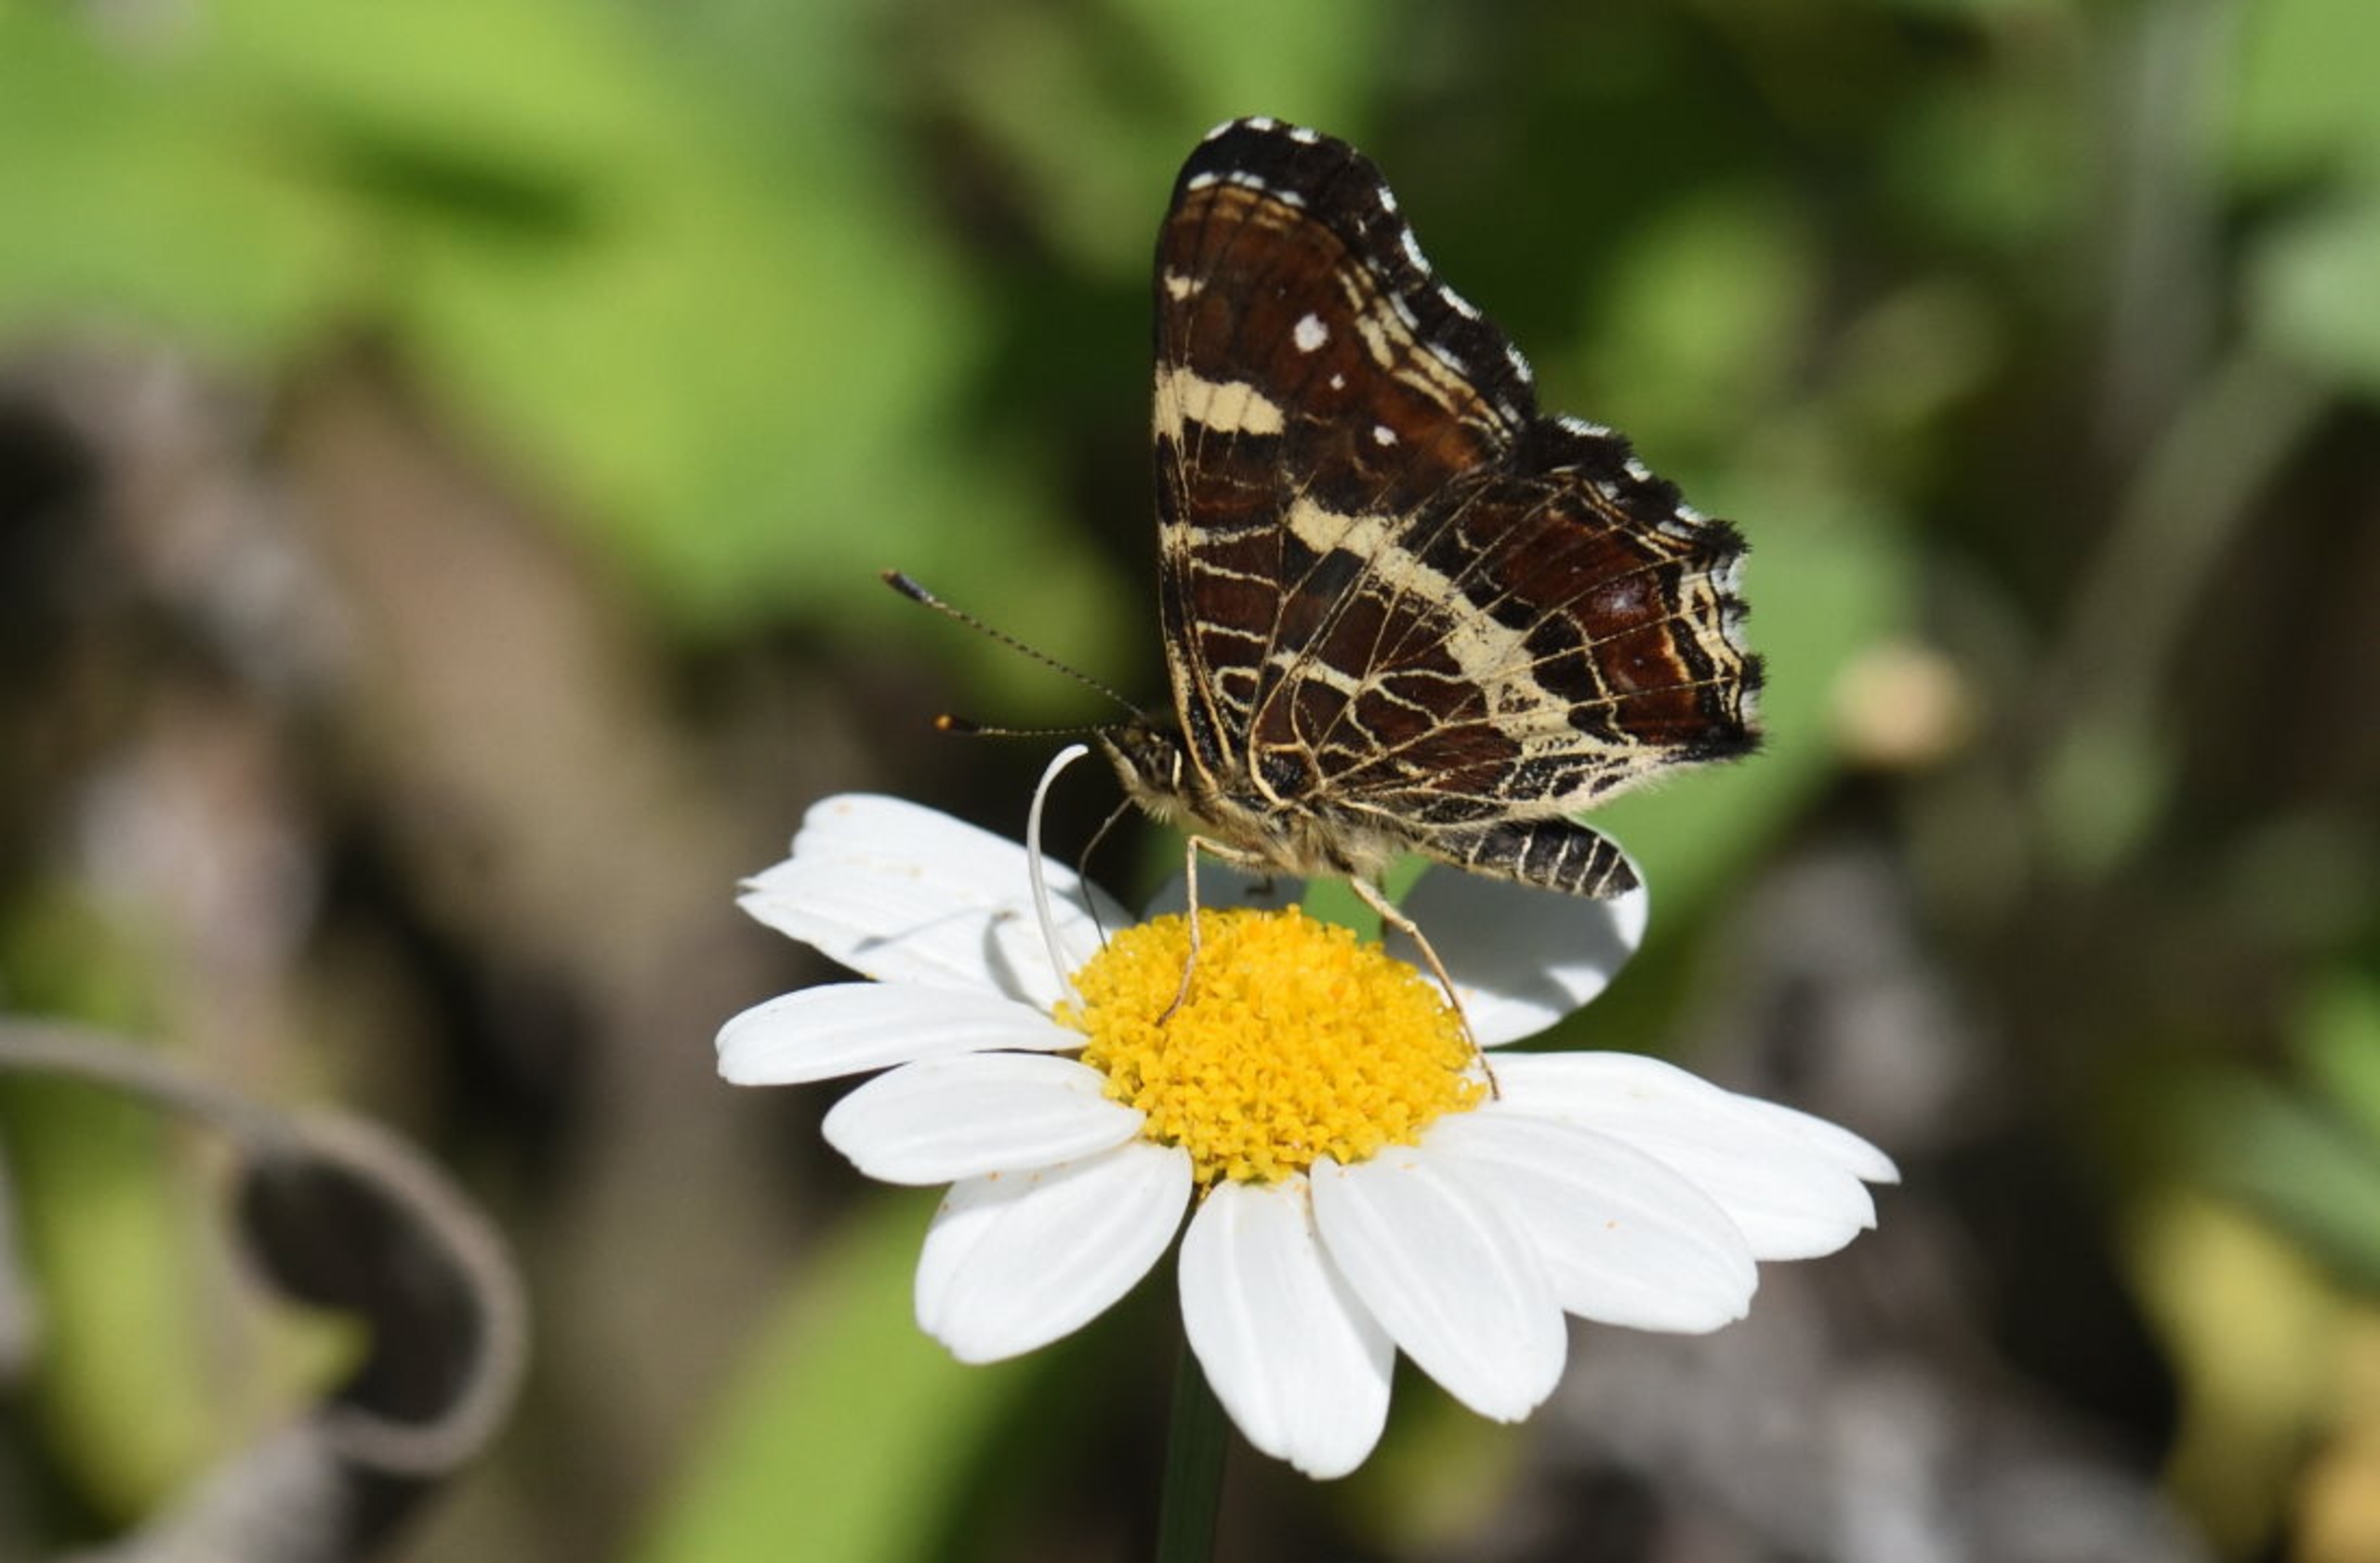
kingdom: Animalia
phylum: Arthropoda
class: Insecta
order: Lepidoptera
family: Nymphalidae
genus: Araschnia
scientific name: Araschnia levana
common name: Nældesommerfugl
